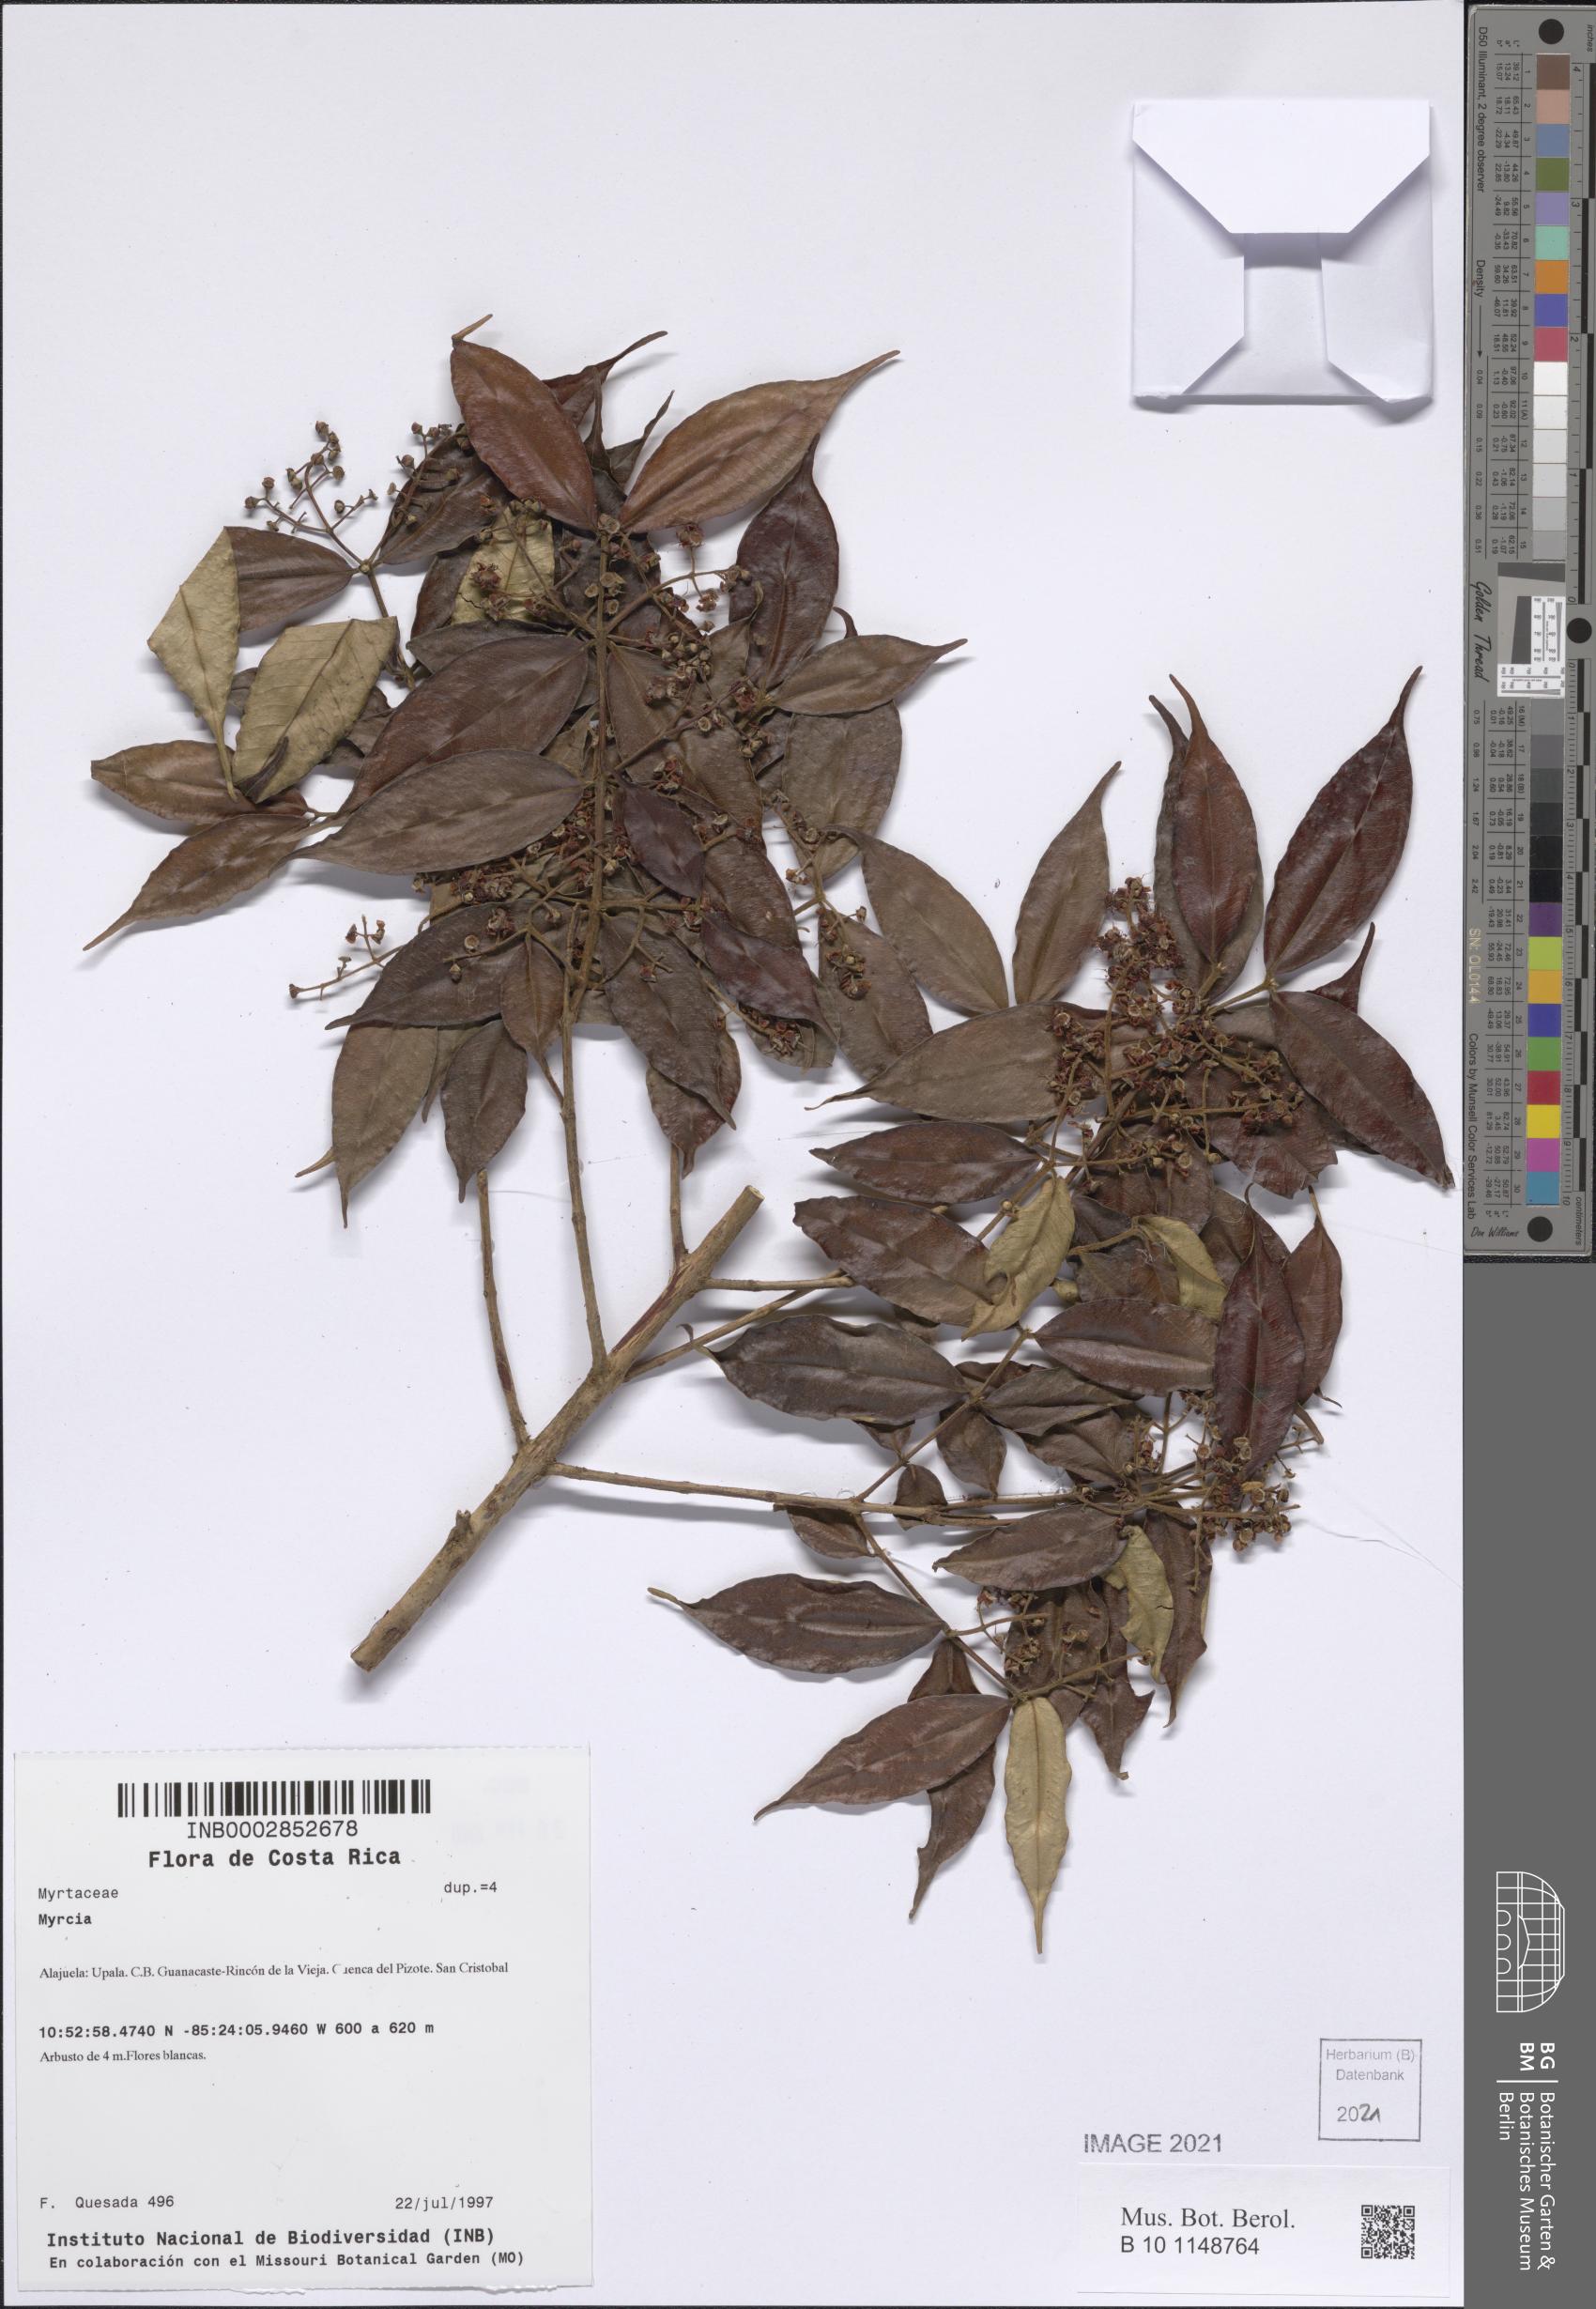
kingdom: Plantae
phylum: Tracheophyta
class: Magnoliopsida
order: Myrtales
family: Myrtaceae
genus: Myrcia
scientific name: Myrcia
